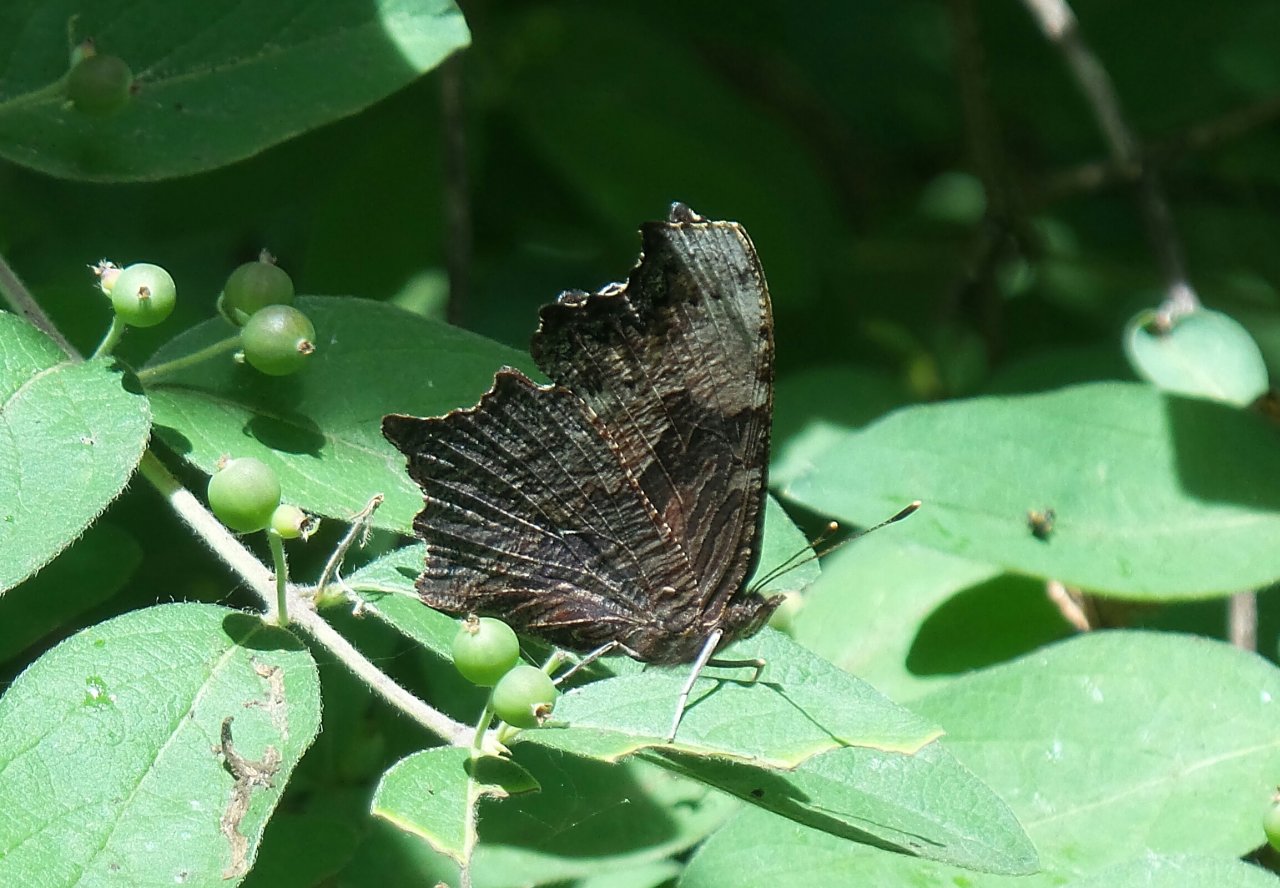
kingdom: Animalia
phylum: Arthropoda
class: Insecta
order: Lepidoptera
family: Nymphalidae
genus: Polygonia
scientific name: Polygonia progne
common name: Gray Comma
